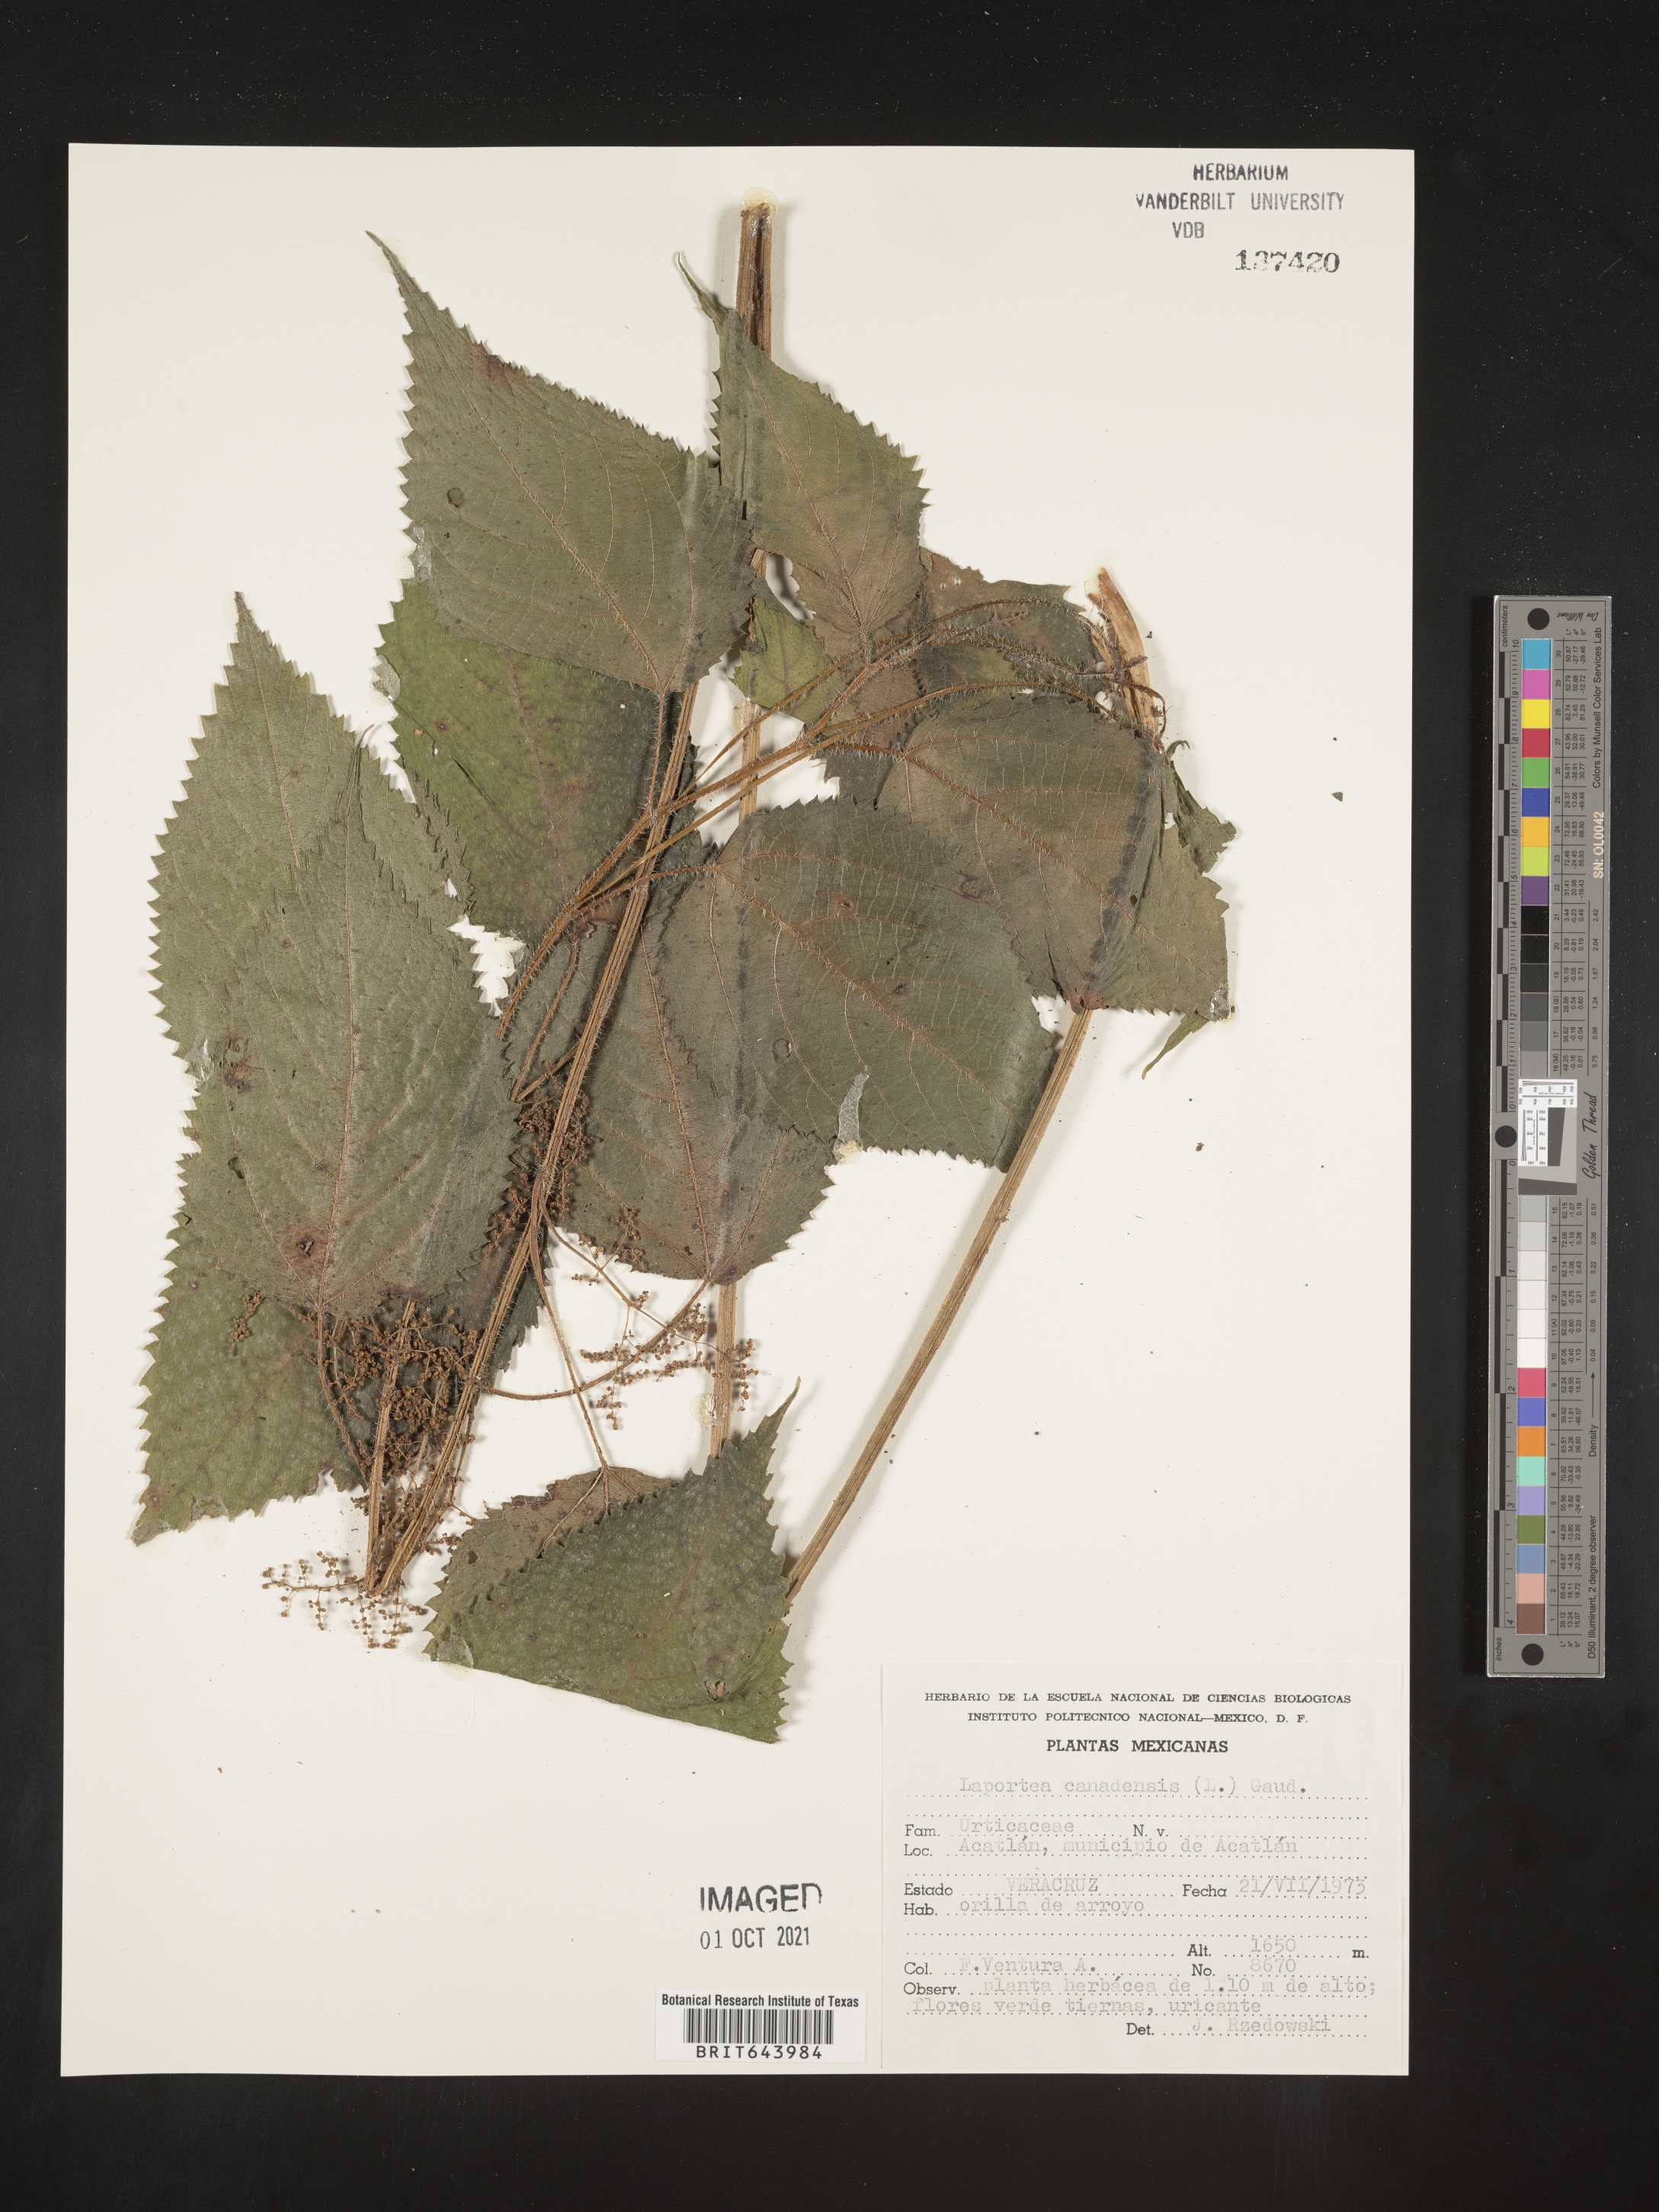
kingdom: Plantae
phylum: Tracheophyta
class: Magnoliopsida
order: Rosales
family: Urticaceae
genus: Laportea
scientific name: Laportea
